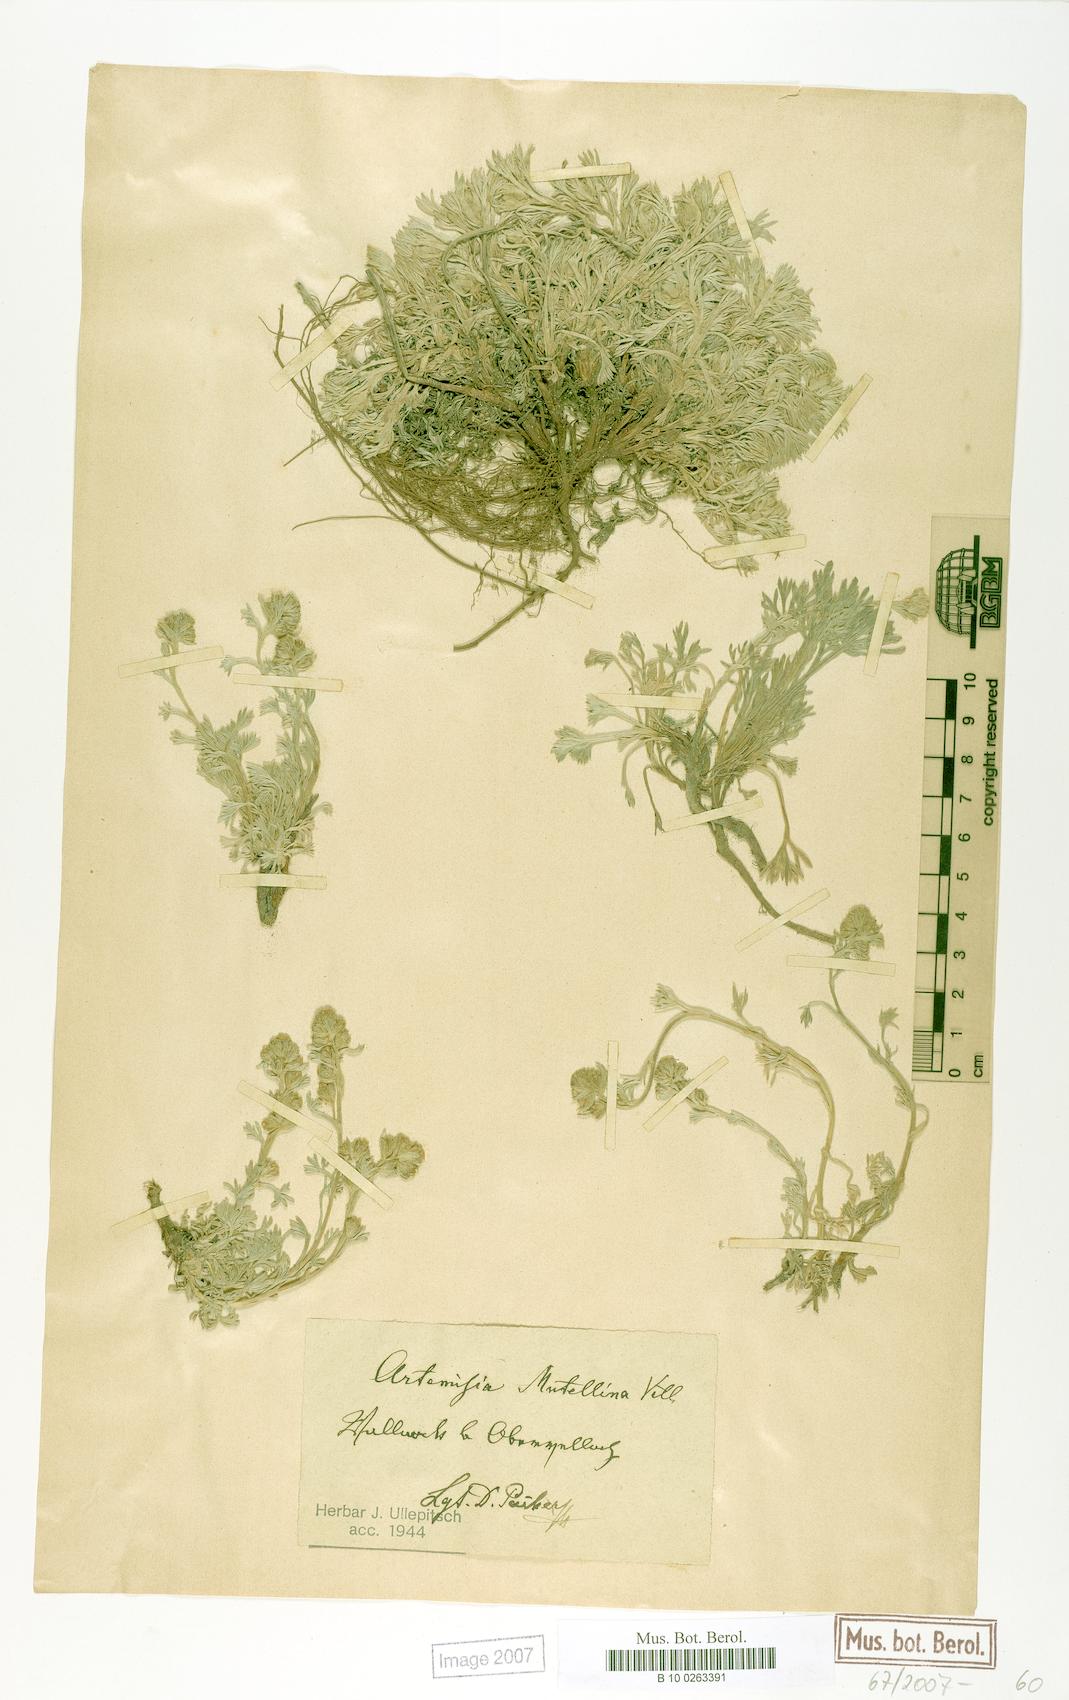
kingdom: Plantae
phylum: Tracheophyta
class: Magnoliopsida
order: Asterales
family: Asteraceae
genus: Artemisia
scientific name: Artemisia mutellina
